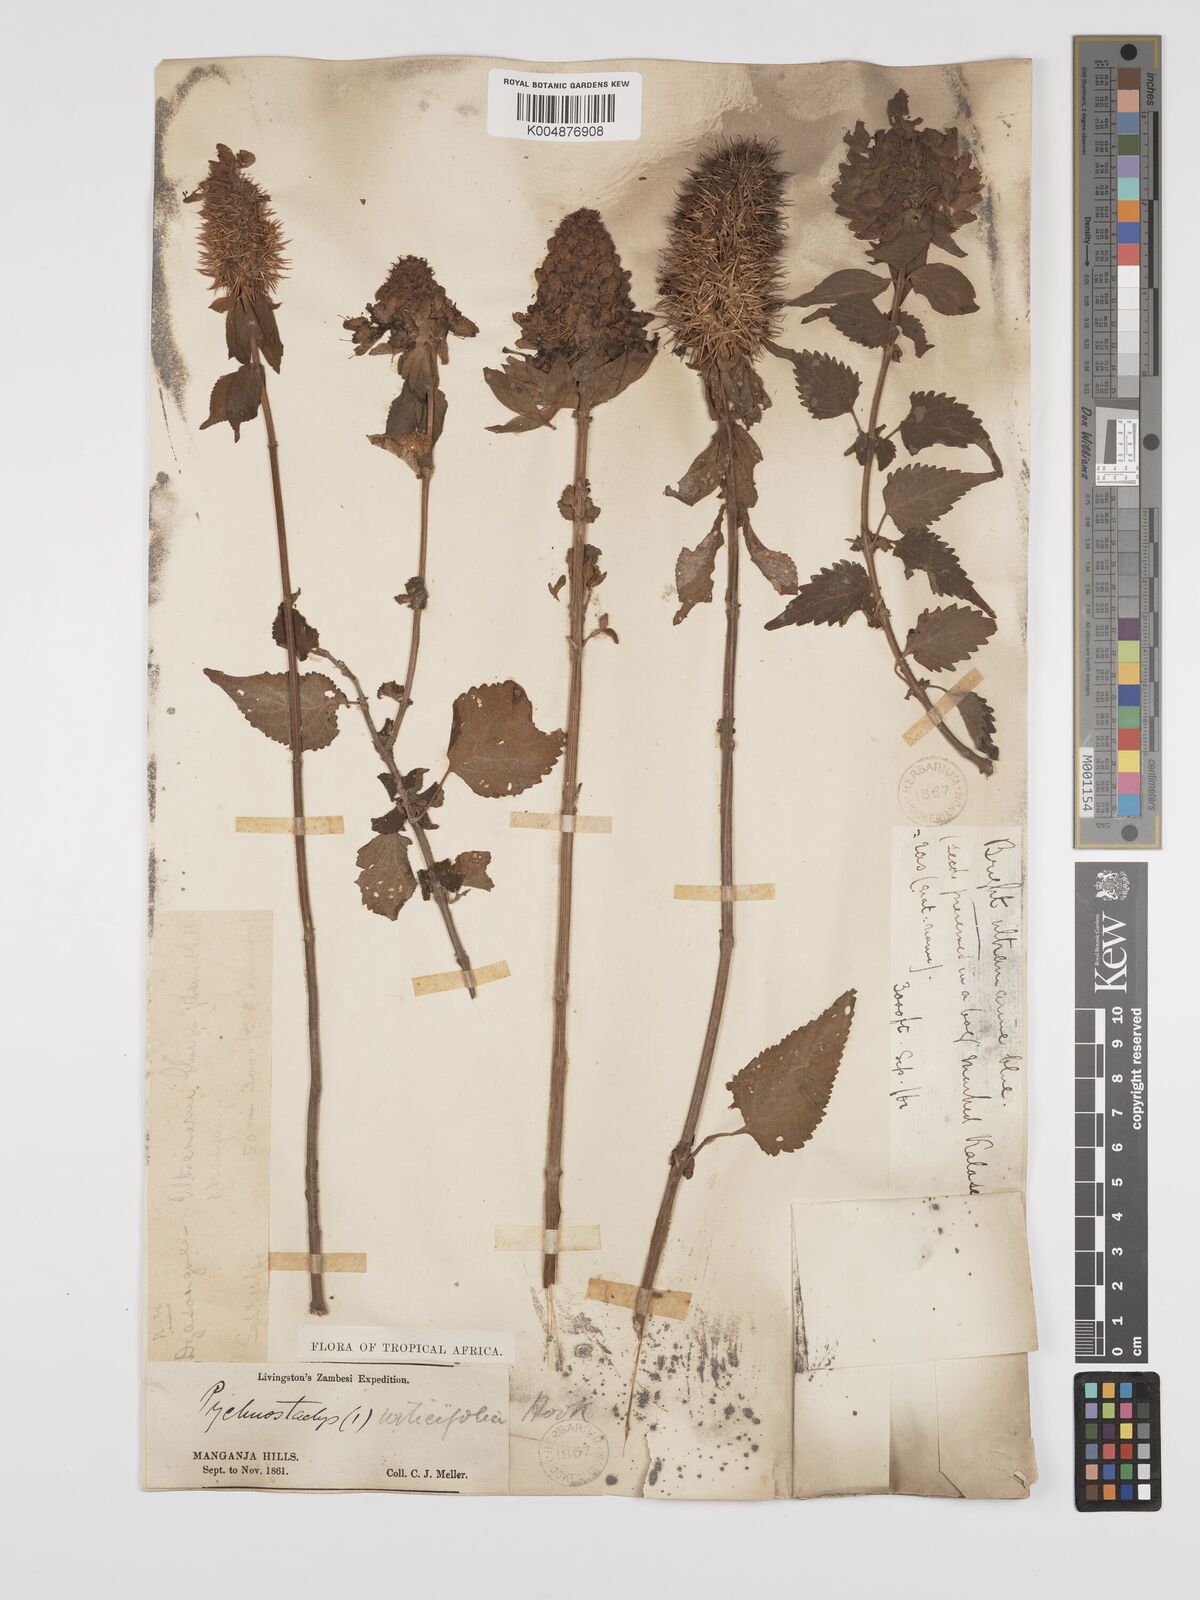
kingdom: Plantae
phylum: Tracheophyta
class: Magnoliopsida
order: Lamiales
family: Lamiaceae
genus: Coleus
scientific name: Coleus livingstonei
